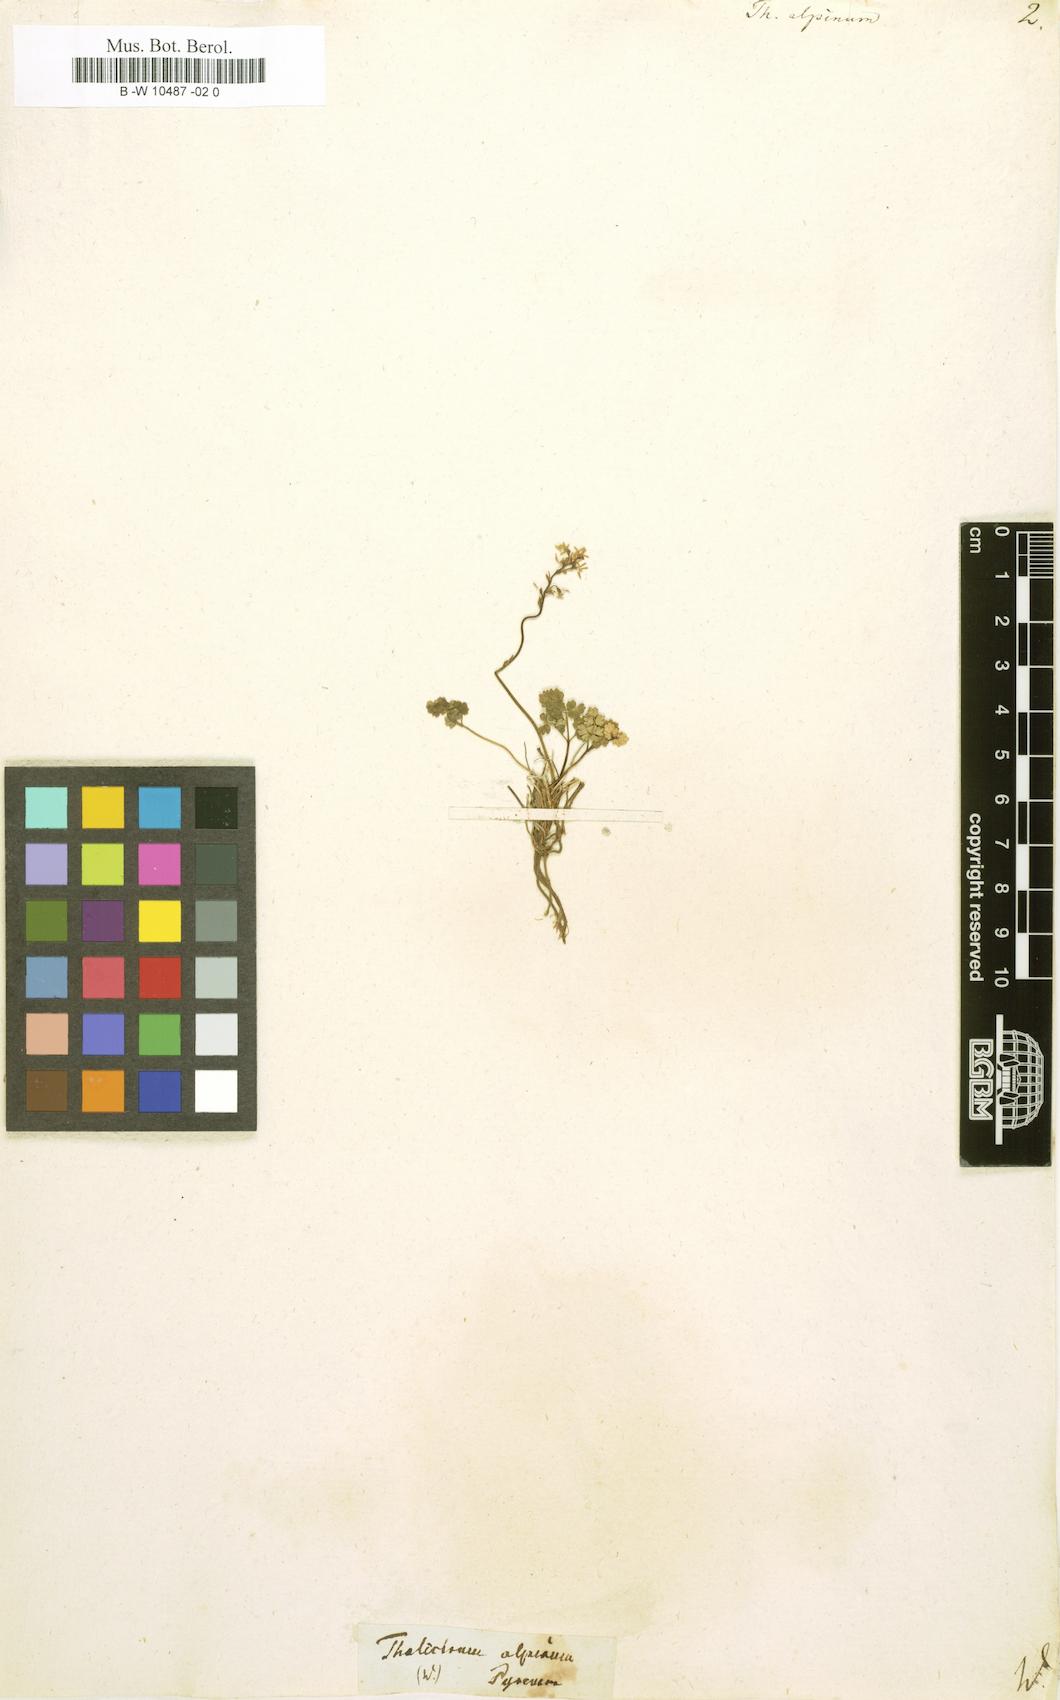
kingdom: Plantae
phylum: Tracheophyta
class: Magnoliopsida
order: Ranunculales
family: Ranunculaceae
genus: Thalictrum
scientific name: Thalictrum alpinum
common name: Alpine meadow-rue
